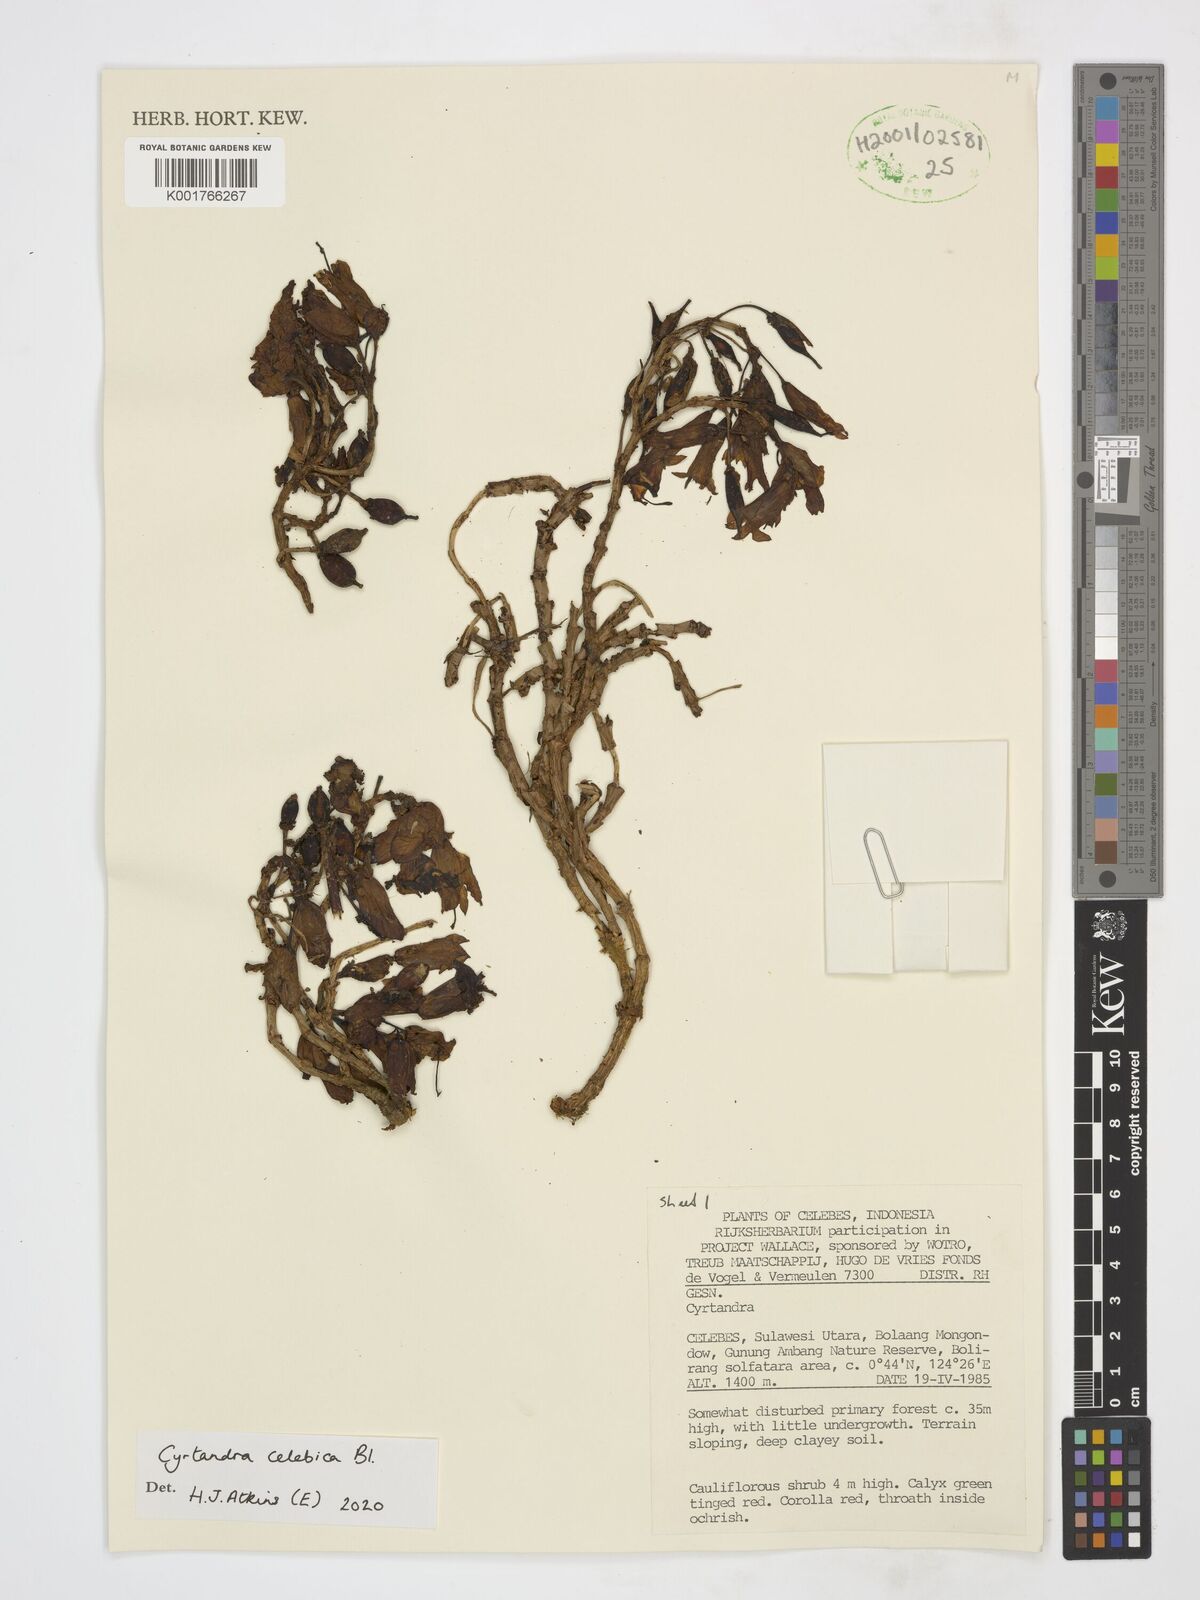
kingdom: Plantae
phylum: Tracheophyta
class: Magnoliopsida
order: Lamiales
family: Gesneriaceae
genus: Cyrtandra
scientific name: Cyrtandra coccinea
